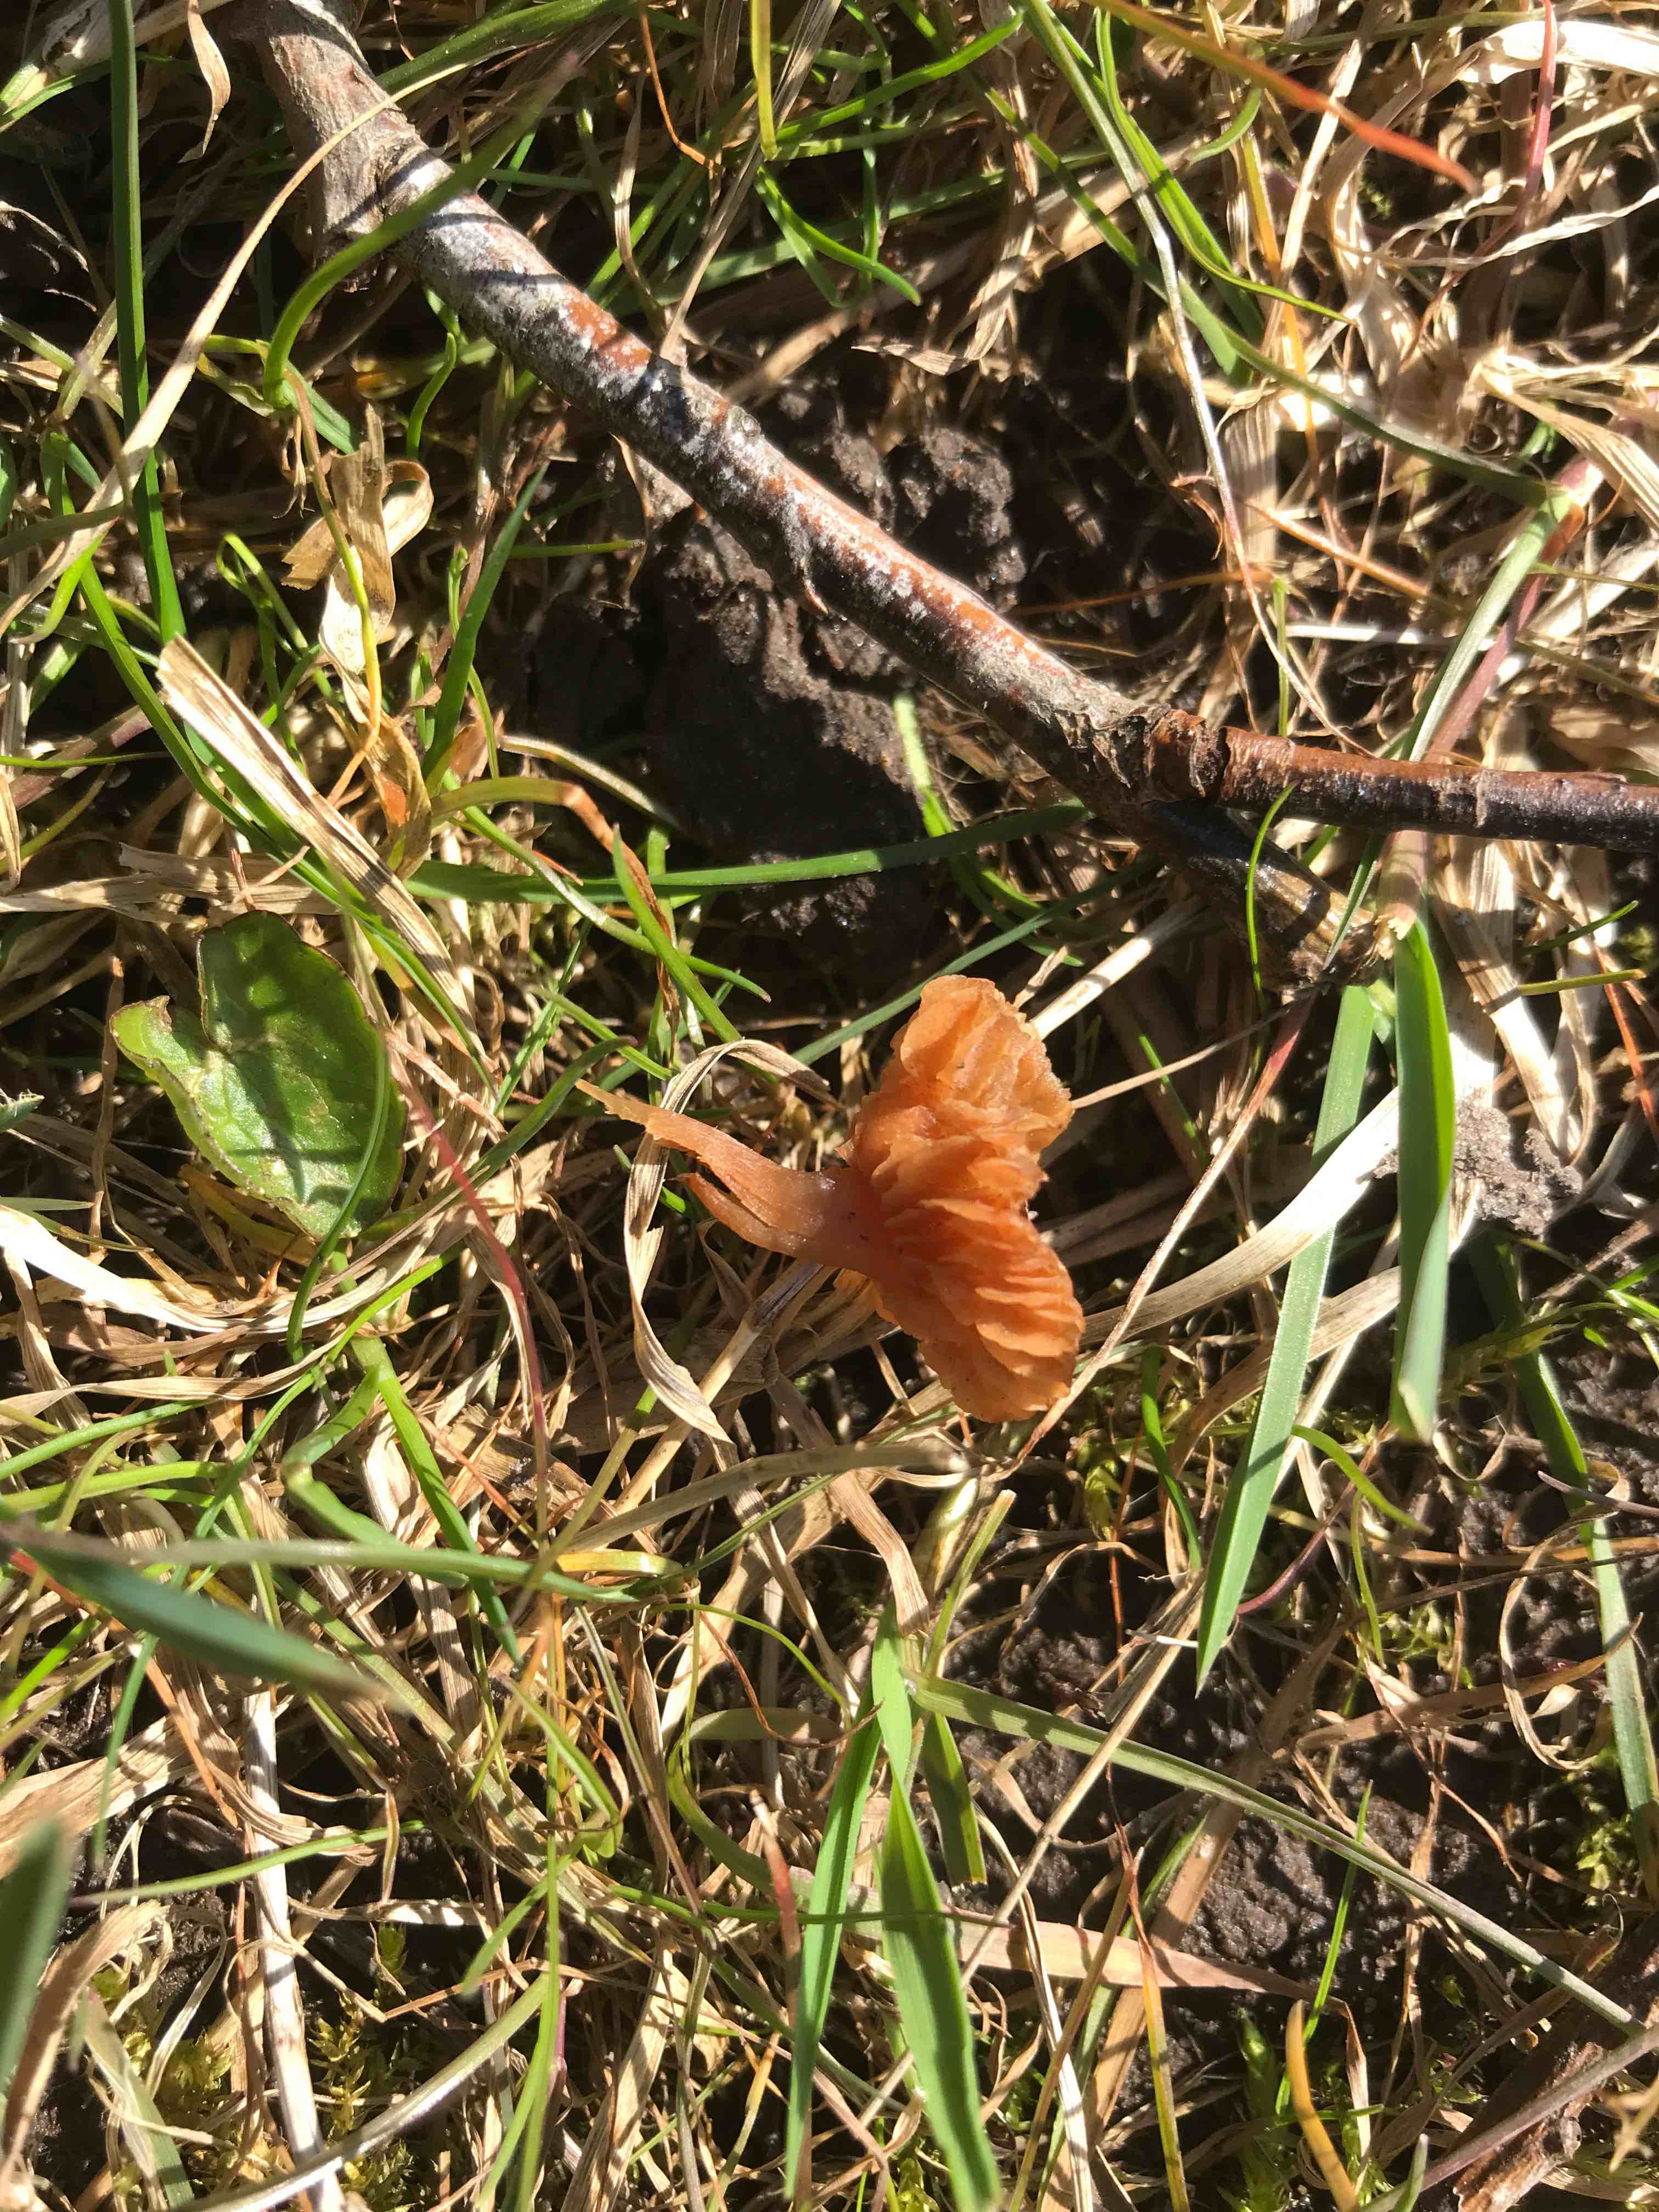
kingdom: Fungi
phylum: Basidiomycota
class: Agaricomycetes
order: Agaricales
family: Tubariaceae
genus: Tubaria
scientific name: Tubaria furfuracea
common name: kliddet fnughat
